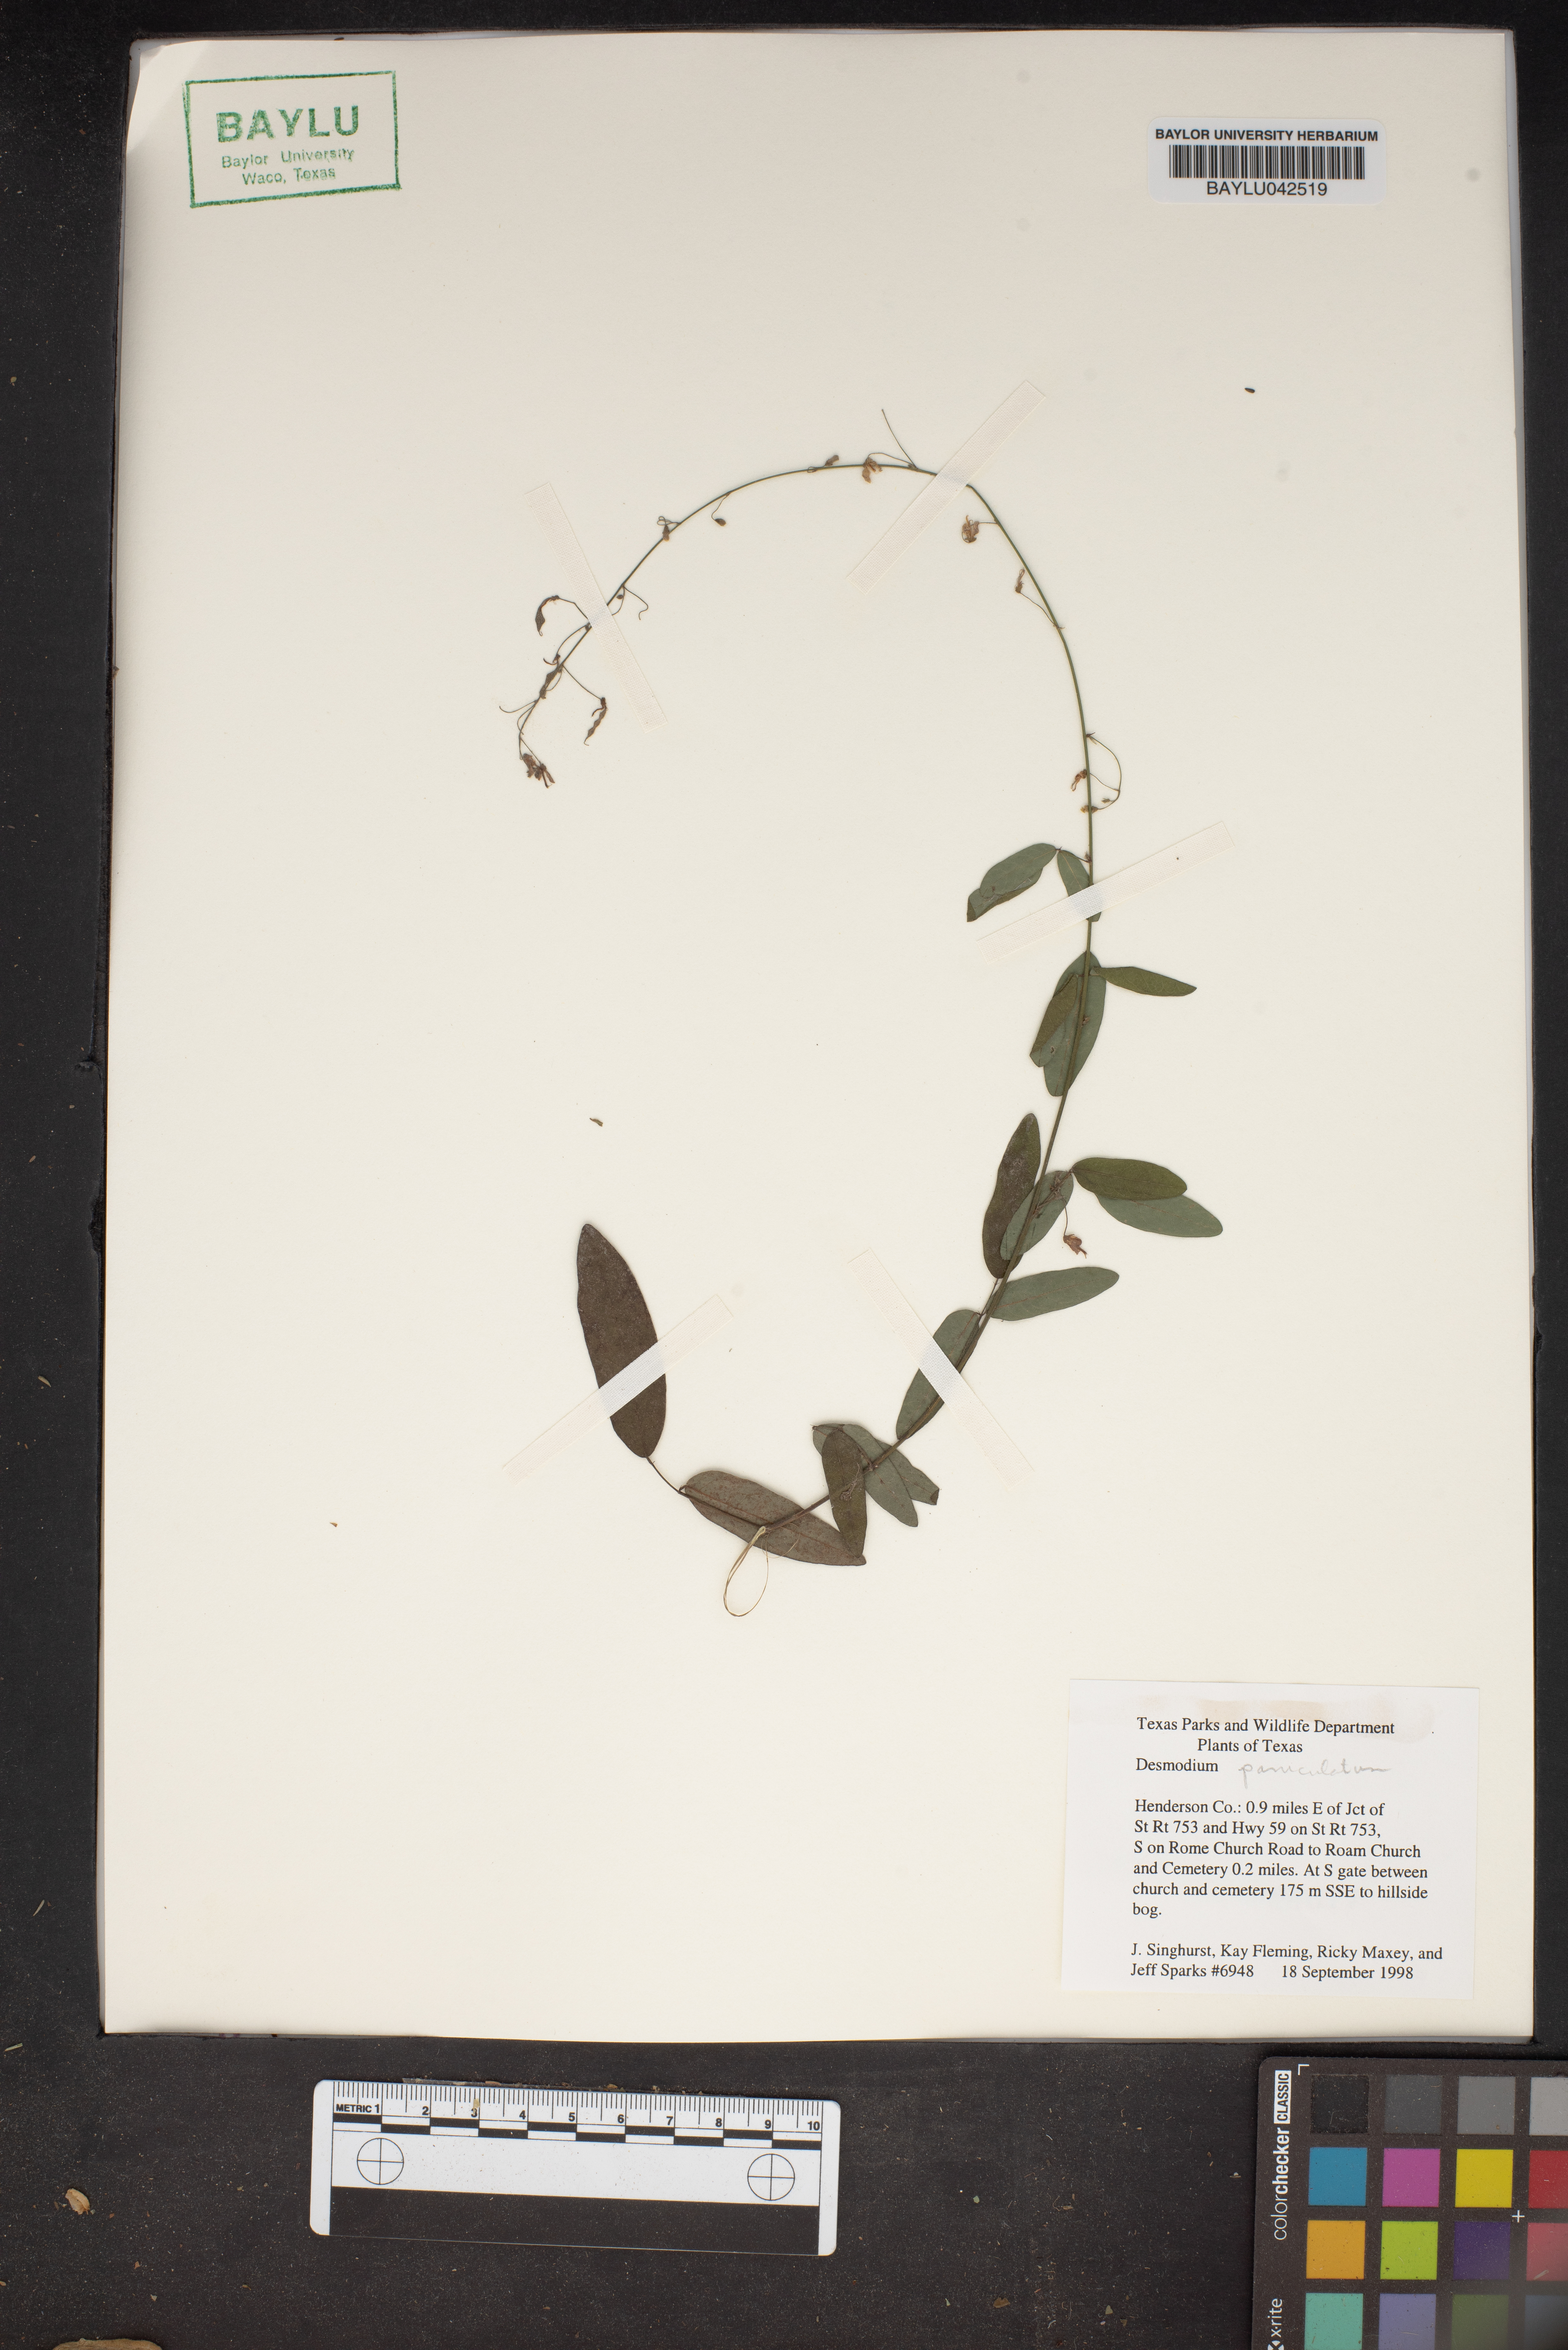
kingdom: Plantae
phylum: Tracheophyta
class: Magnoliopsida
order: Fabales
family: Fabaceae
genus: Desmodium
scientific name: Desmodium paniculatum
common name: Panicled tick-clover
